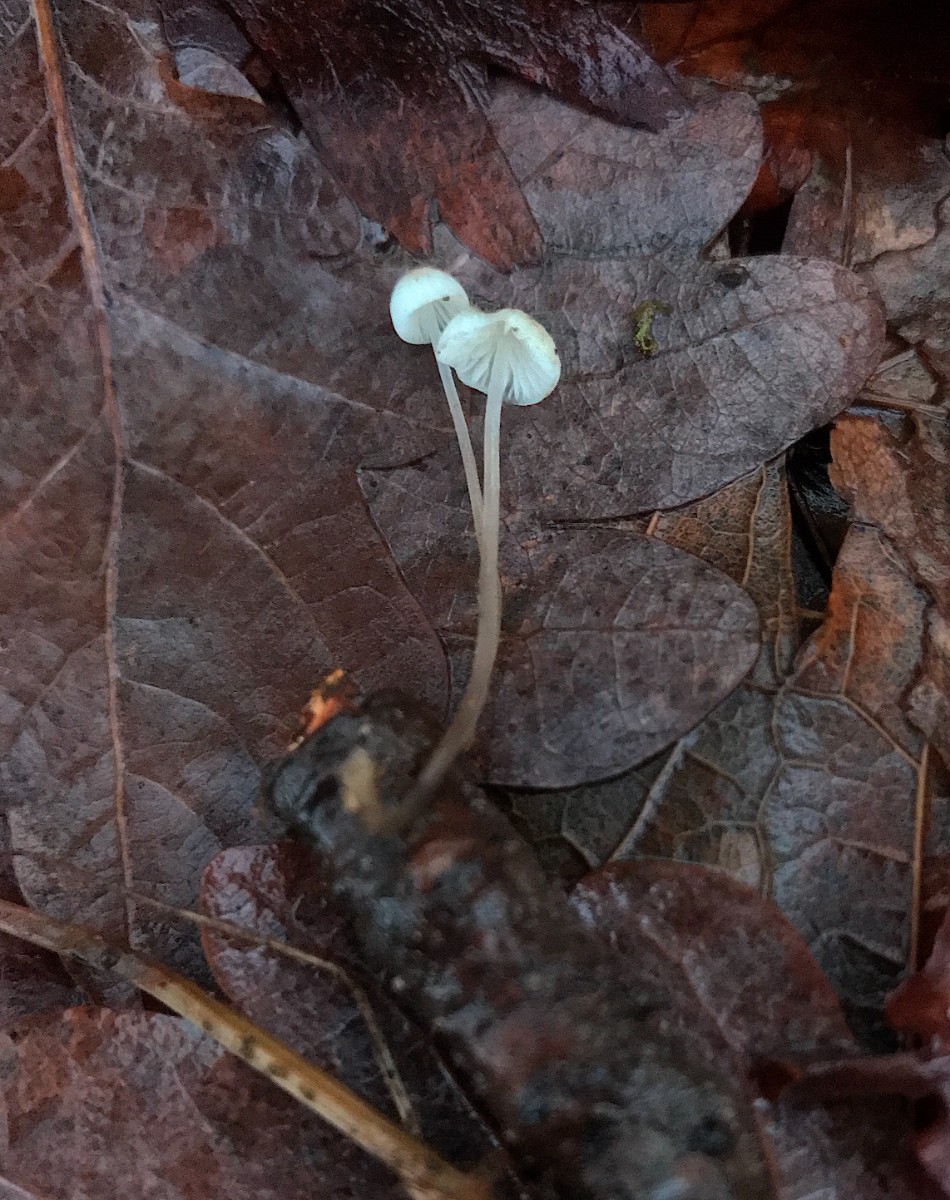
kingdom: Fungi
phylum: Basidiomycota
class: Agaricomycetes
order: Agaricales
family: Mycenaceae
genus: Mycena
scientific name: Mycena vitilis
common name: blankstokket huesvamp
